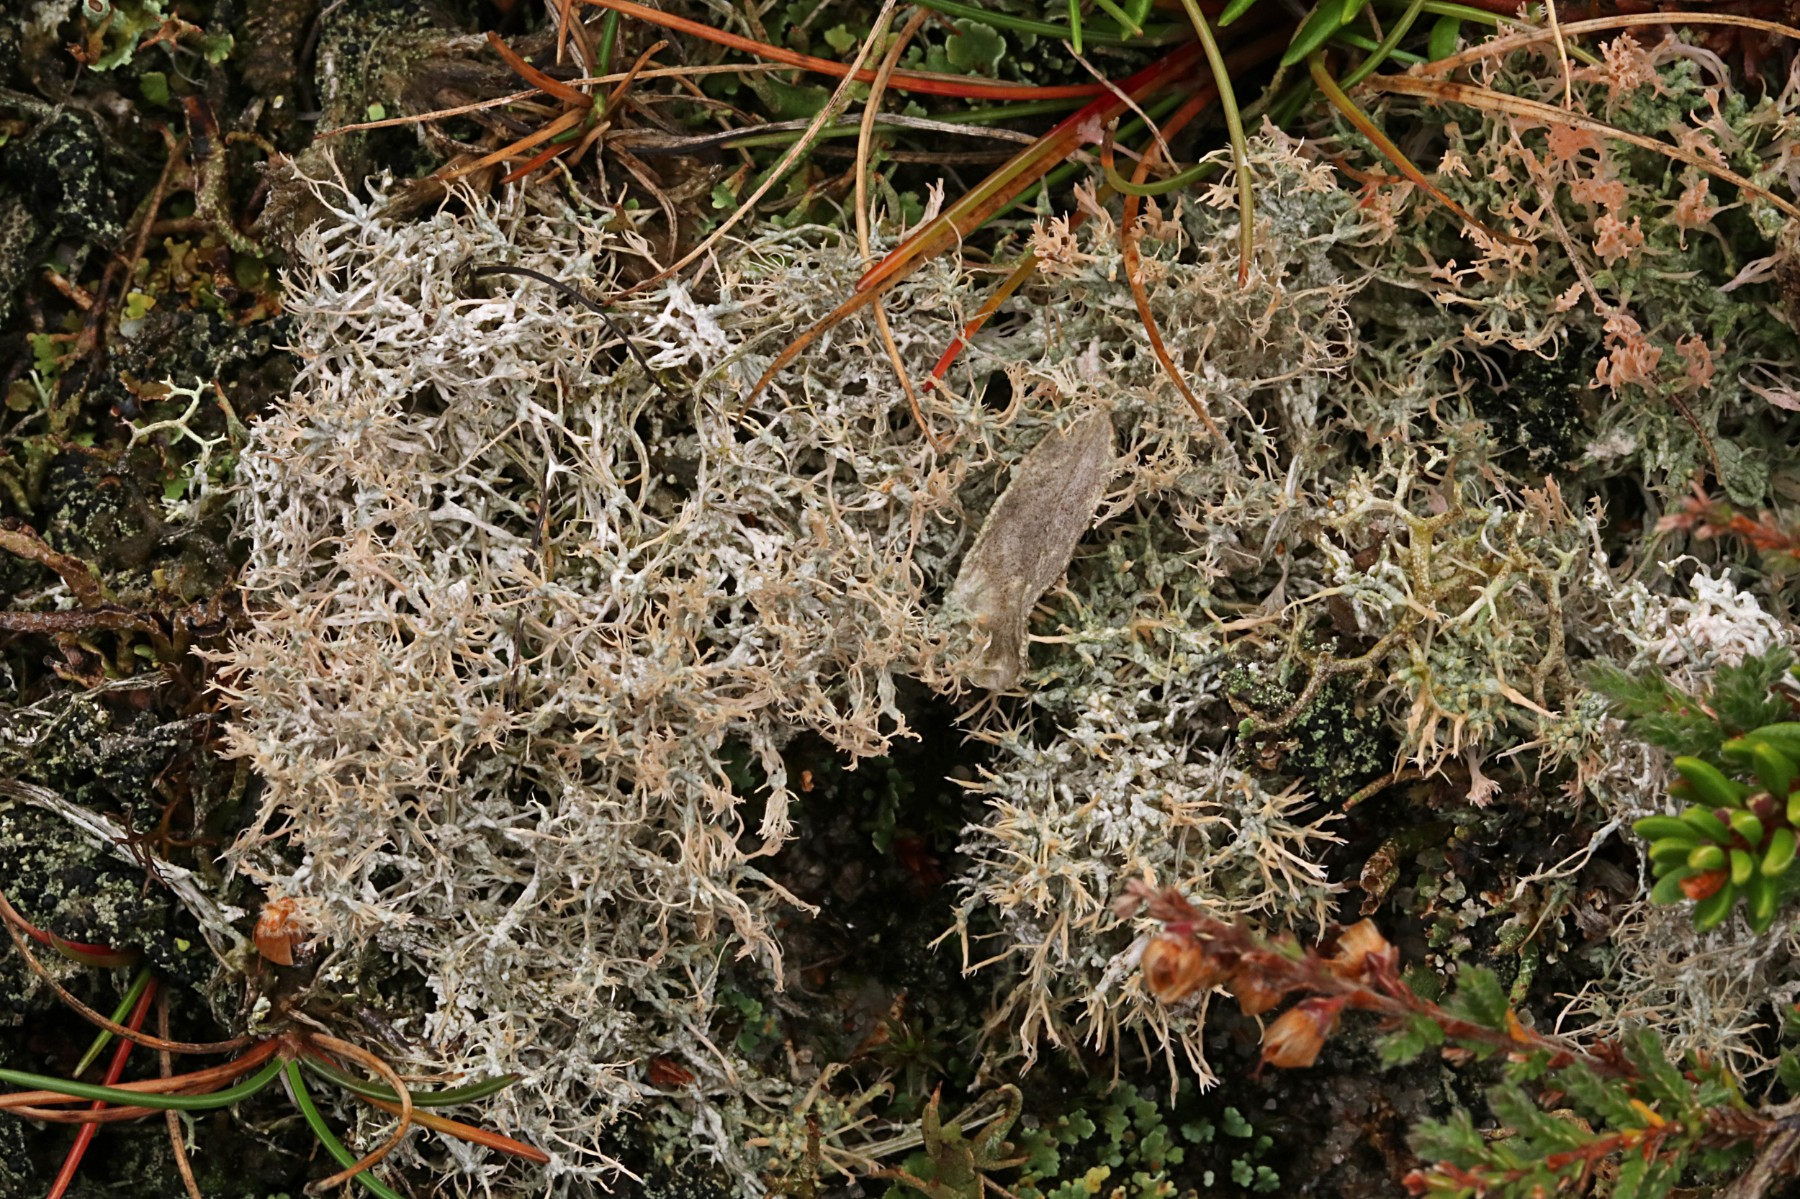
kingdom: Fungi
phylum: Ascomycota
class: Lecanoromycetes
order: Pertusariales
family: Ochrolechiaceae
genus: Ochrolechia
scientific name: Ochrolechia frigida
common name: fjeld-blegskivelav
